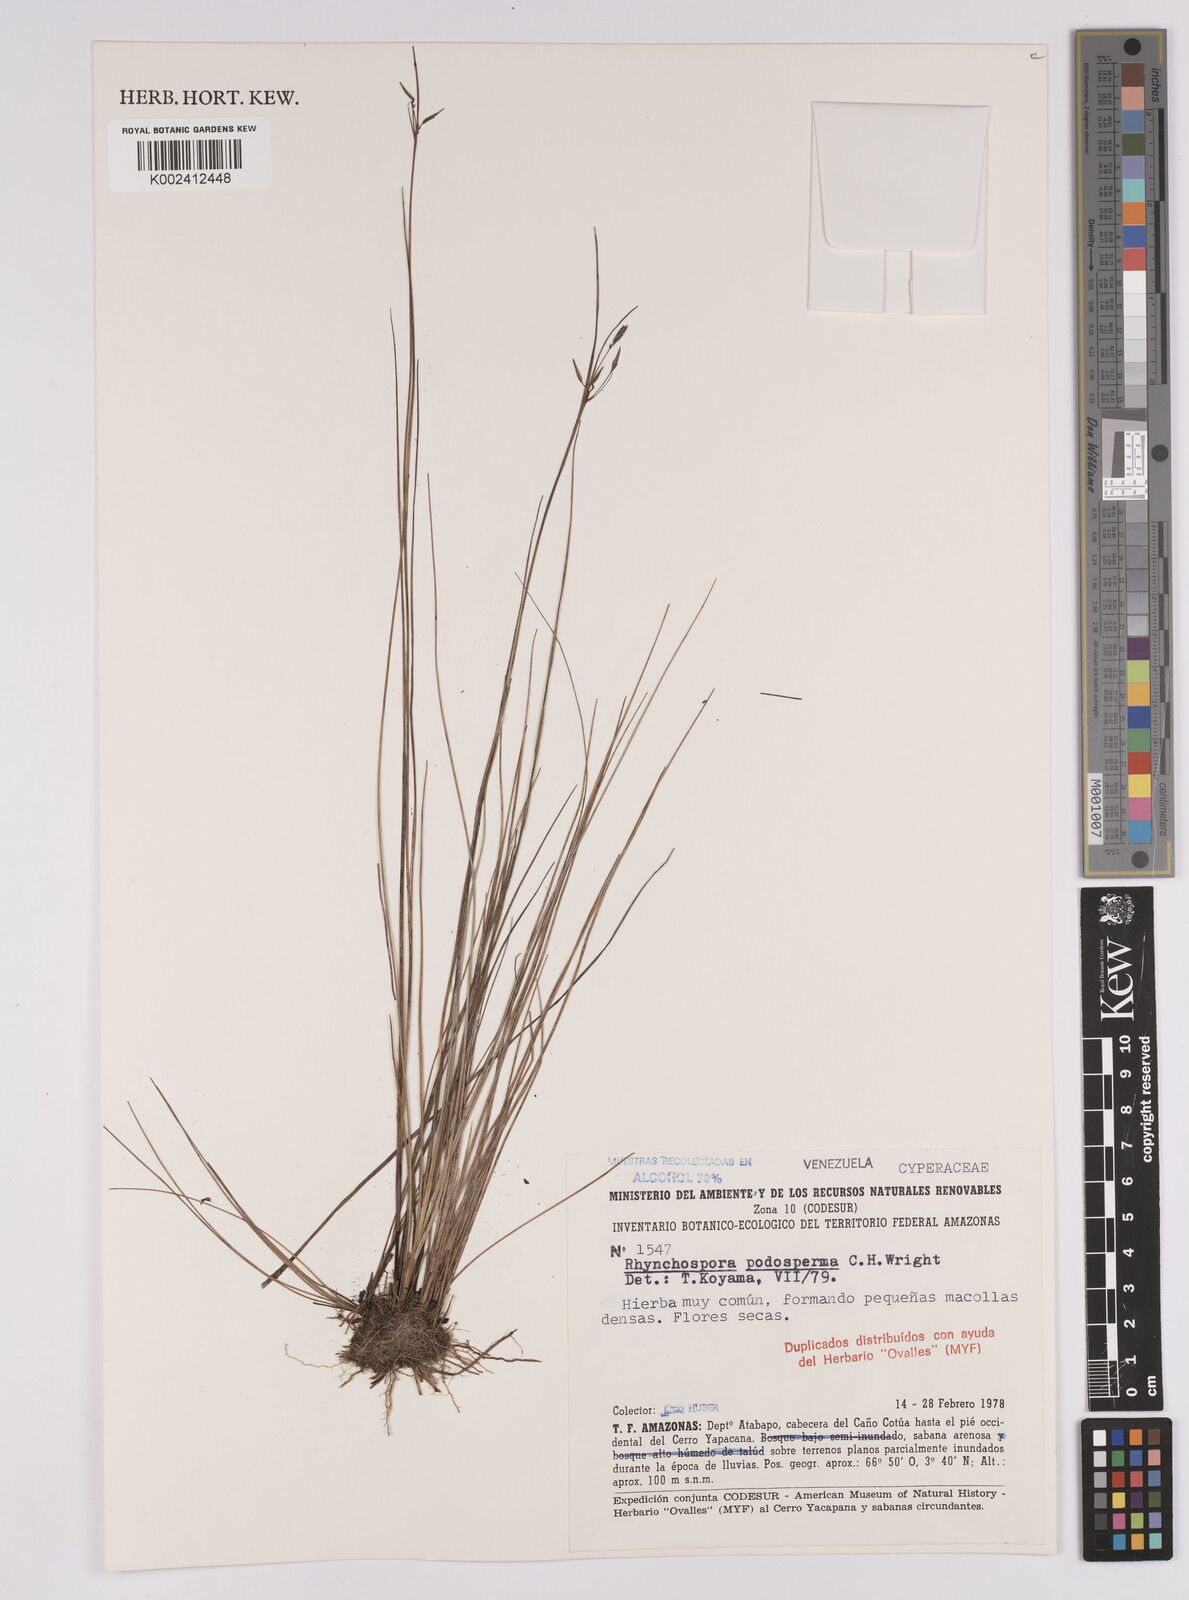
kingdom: Plantae
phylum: Tracheophyta
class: Liliopsida
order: Poales
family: Cyperaceae
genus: Rhynchospora
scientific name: Rhynchospora filiformis
